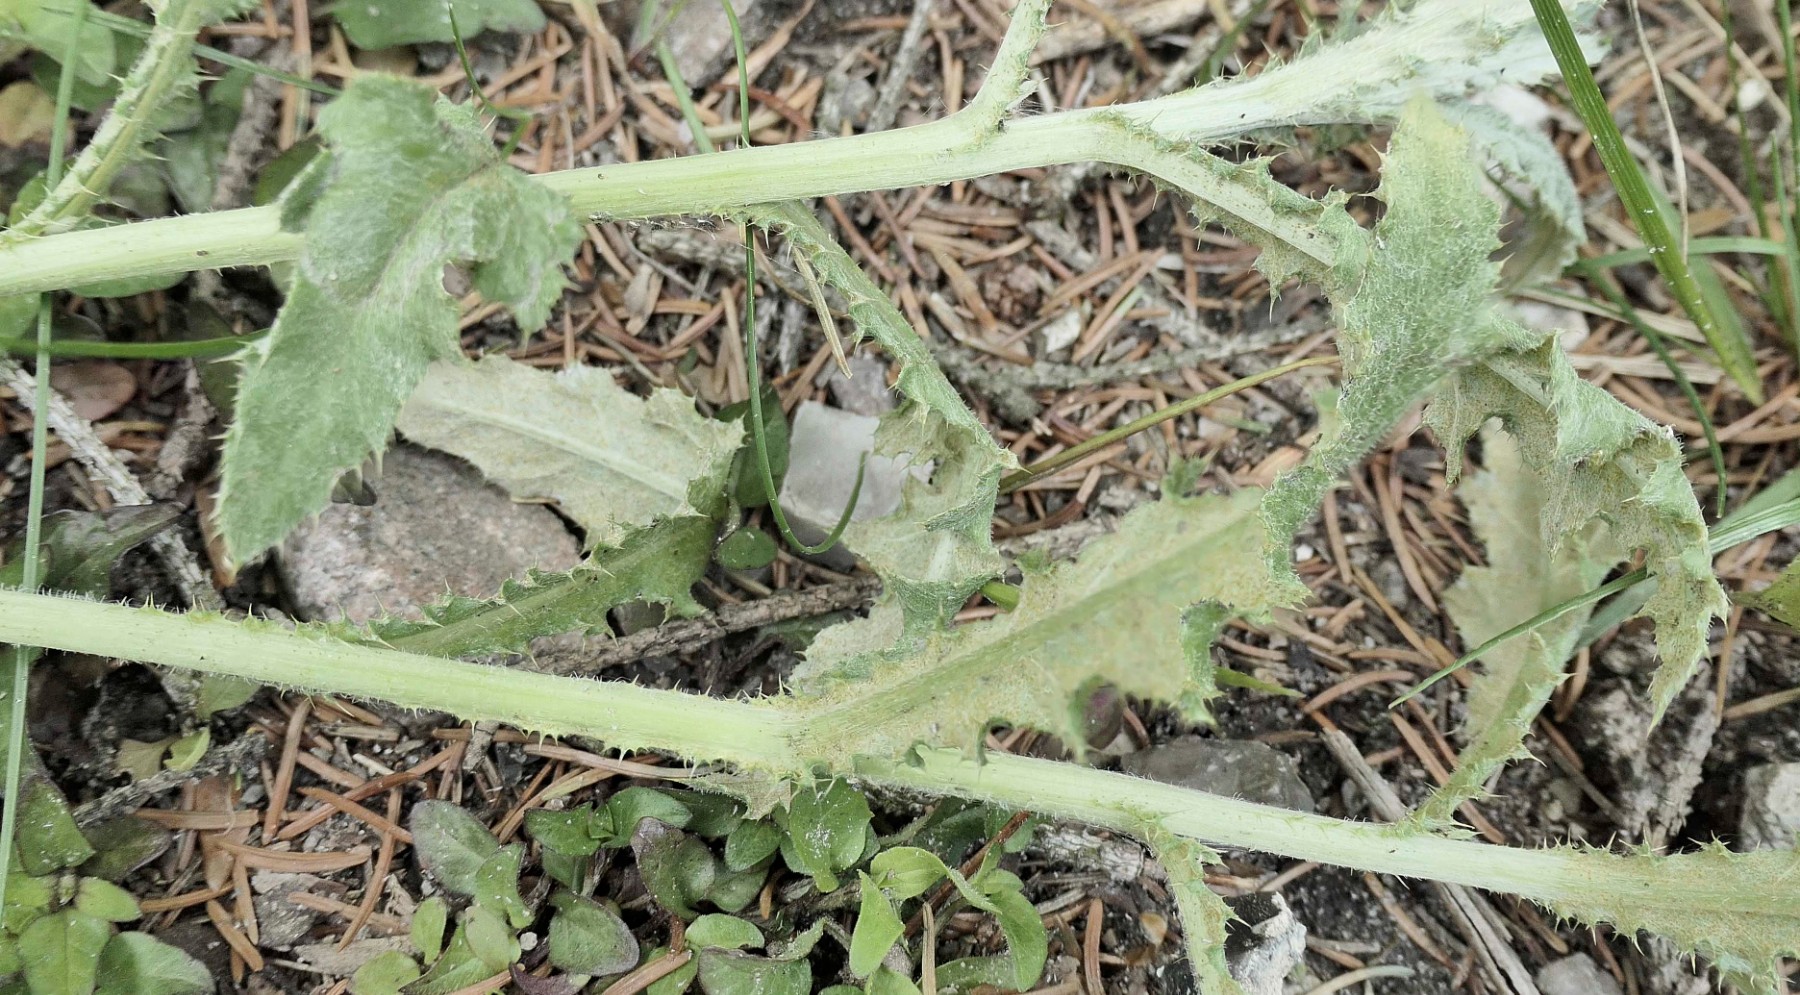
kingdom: Fungi
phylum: Basidiomycota
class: Pucciniomycetes
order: Pucciniales
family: Pucciniaceae
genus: Puccinia
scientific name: Puccinia suaveolens
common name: tidsel-tvecellerust
